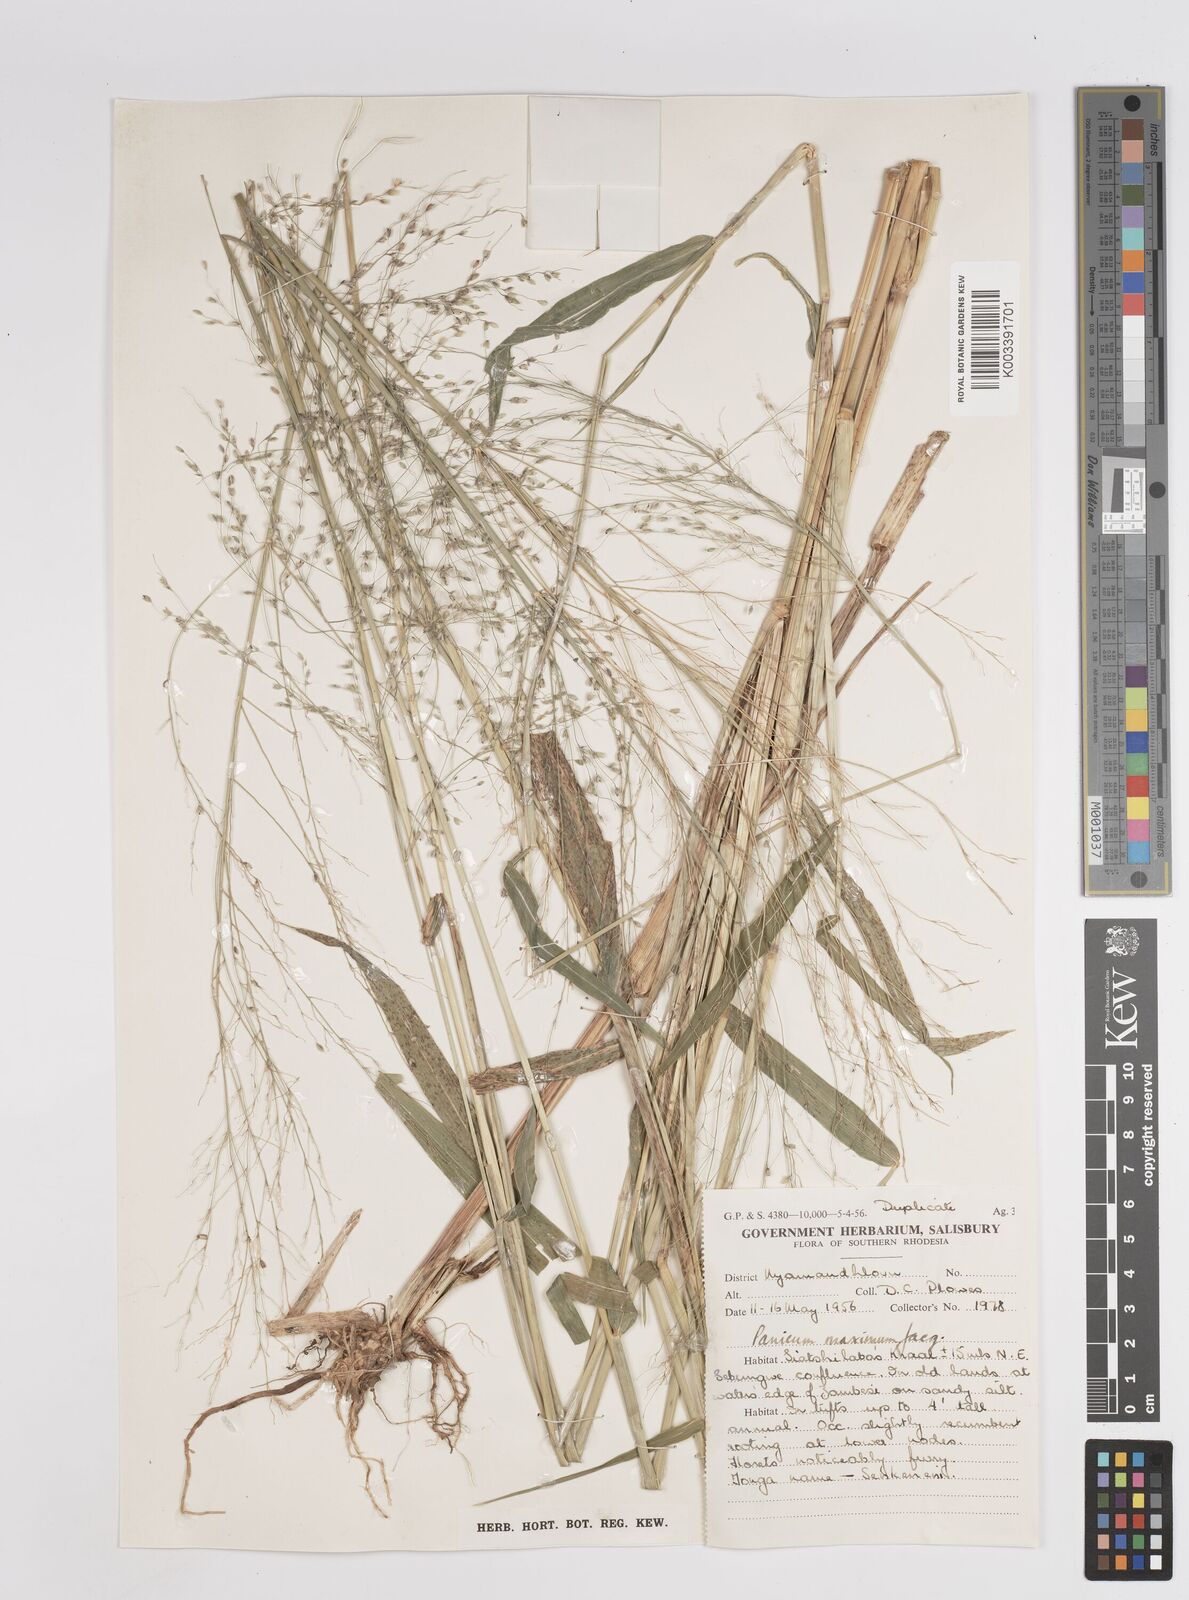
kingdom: Plantae
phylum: Tracheophyta
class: Liliopsida
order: Poales
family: Poaceae
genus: Megathyrsus
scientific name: Megathyrsus maximus
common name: Guineagrass
